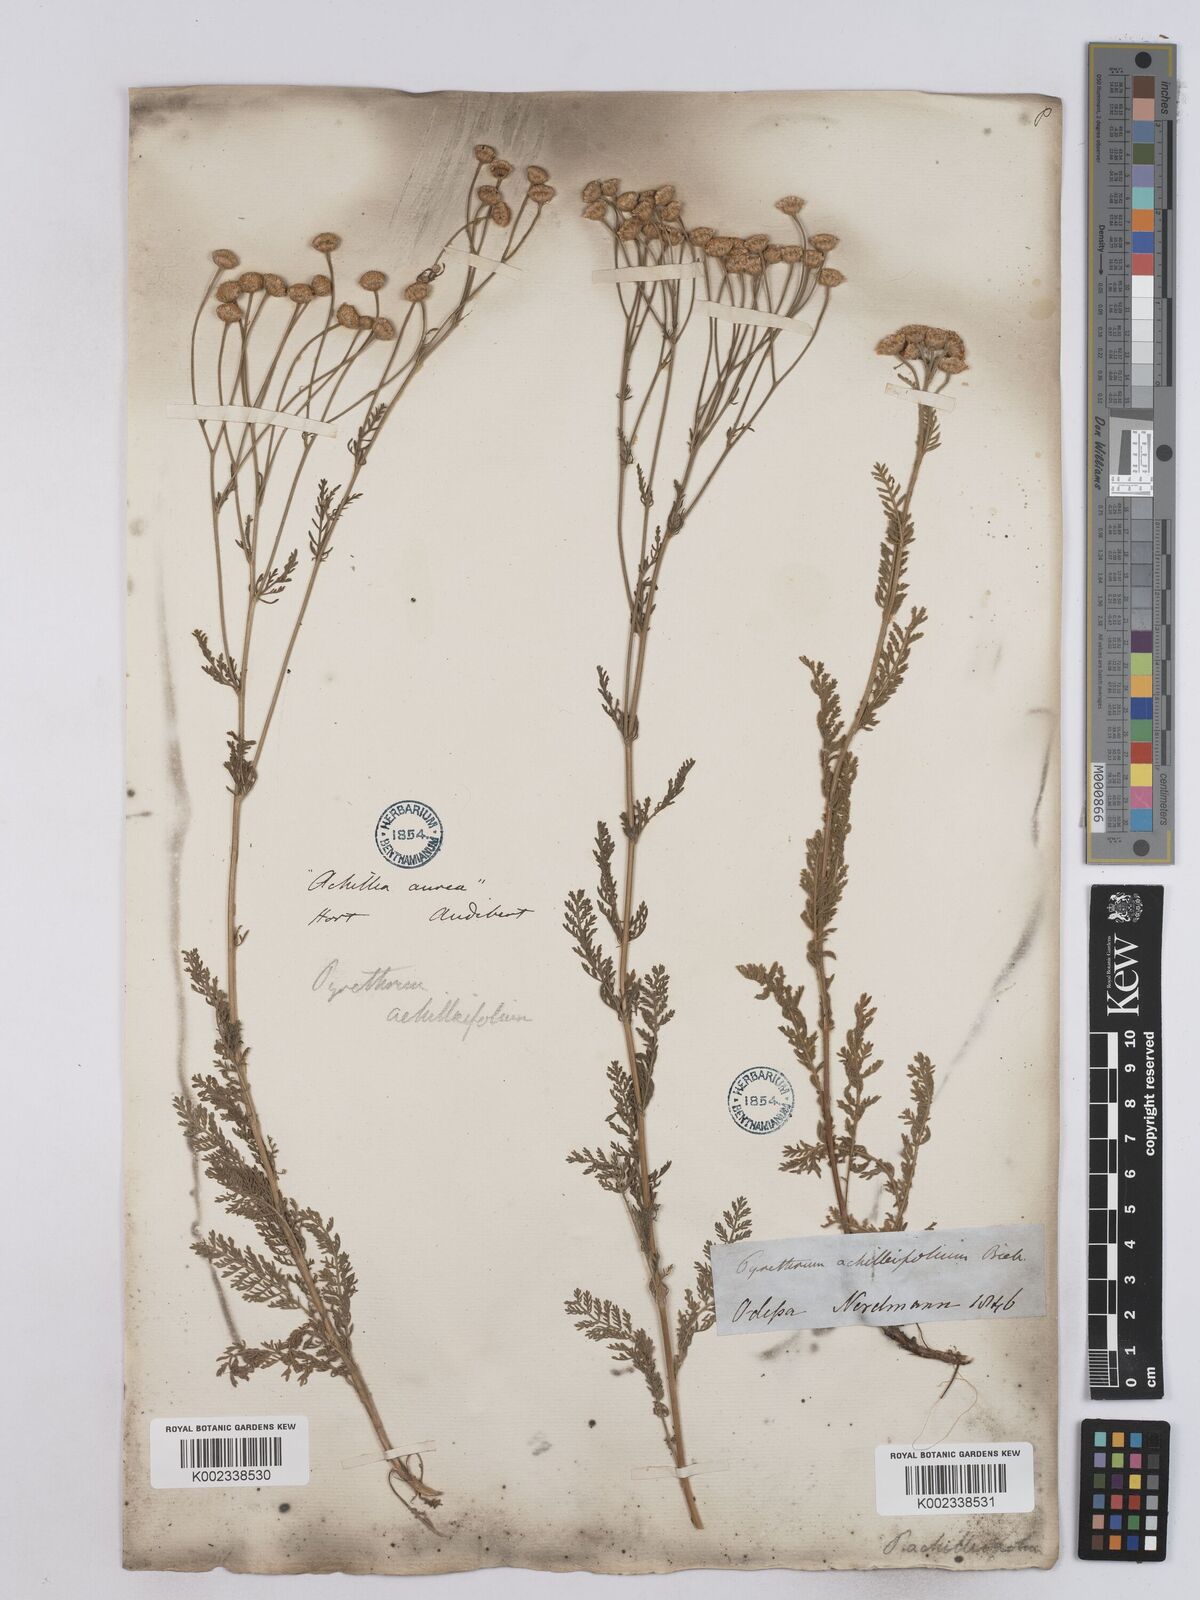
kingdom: Plantae
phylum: Tracheophyta
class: Magnoliopsida
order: Asterales
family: Asteraceae
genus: Tanacetum
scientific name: Tanacetum achilleifolium
